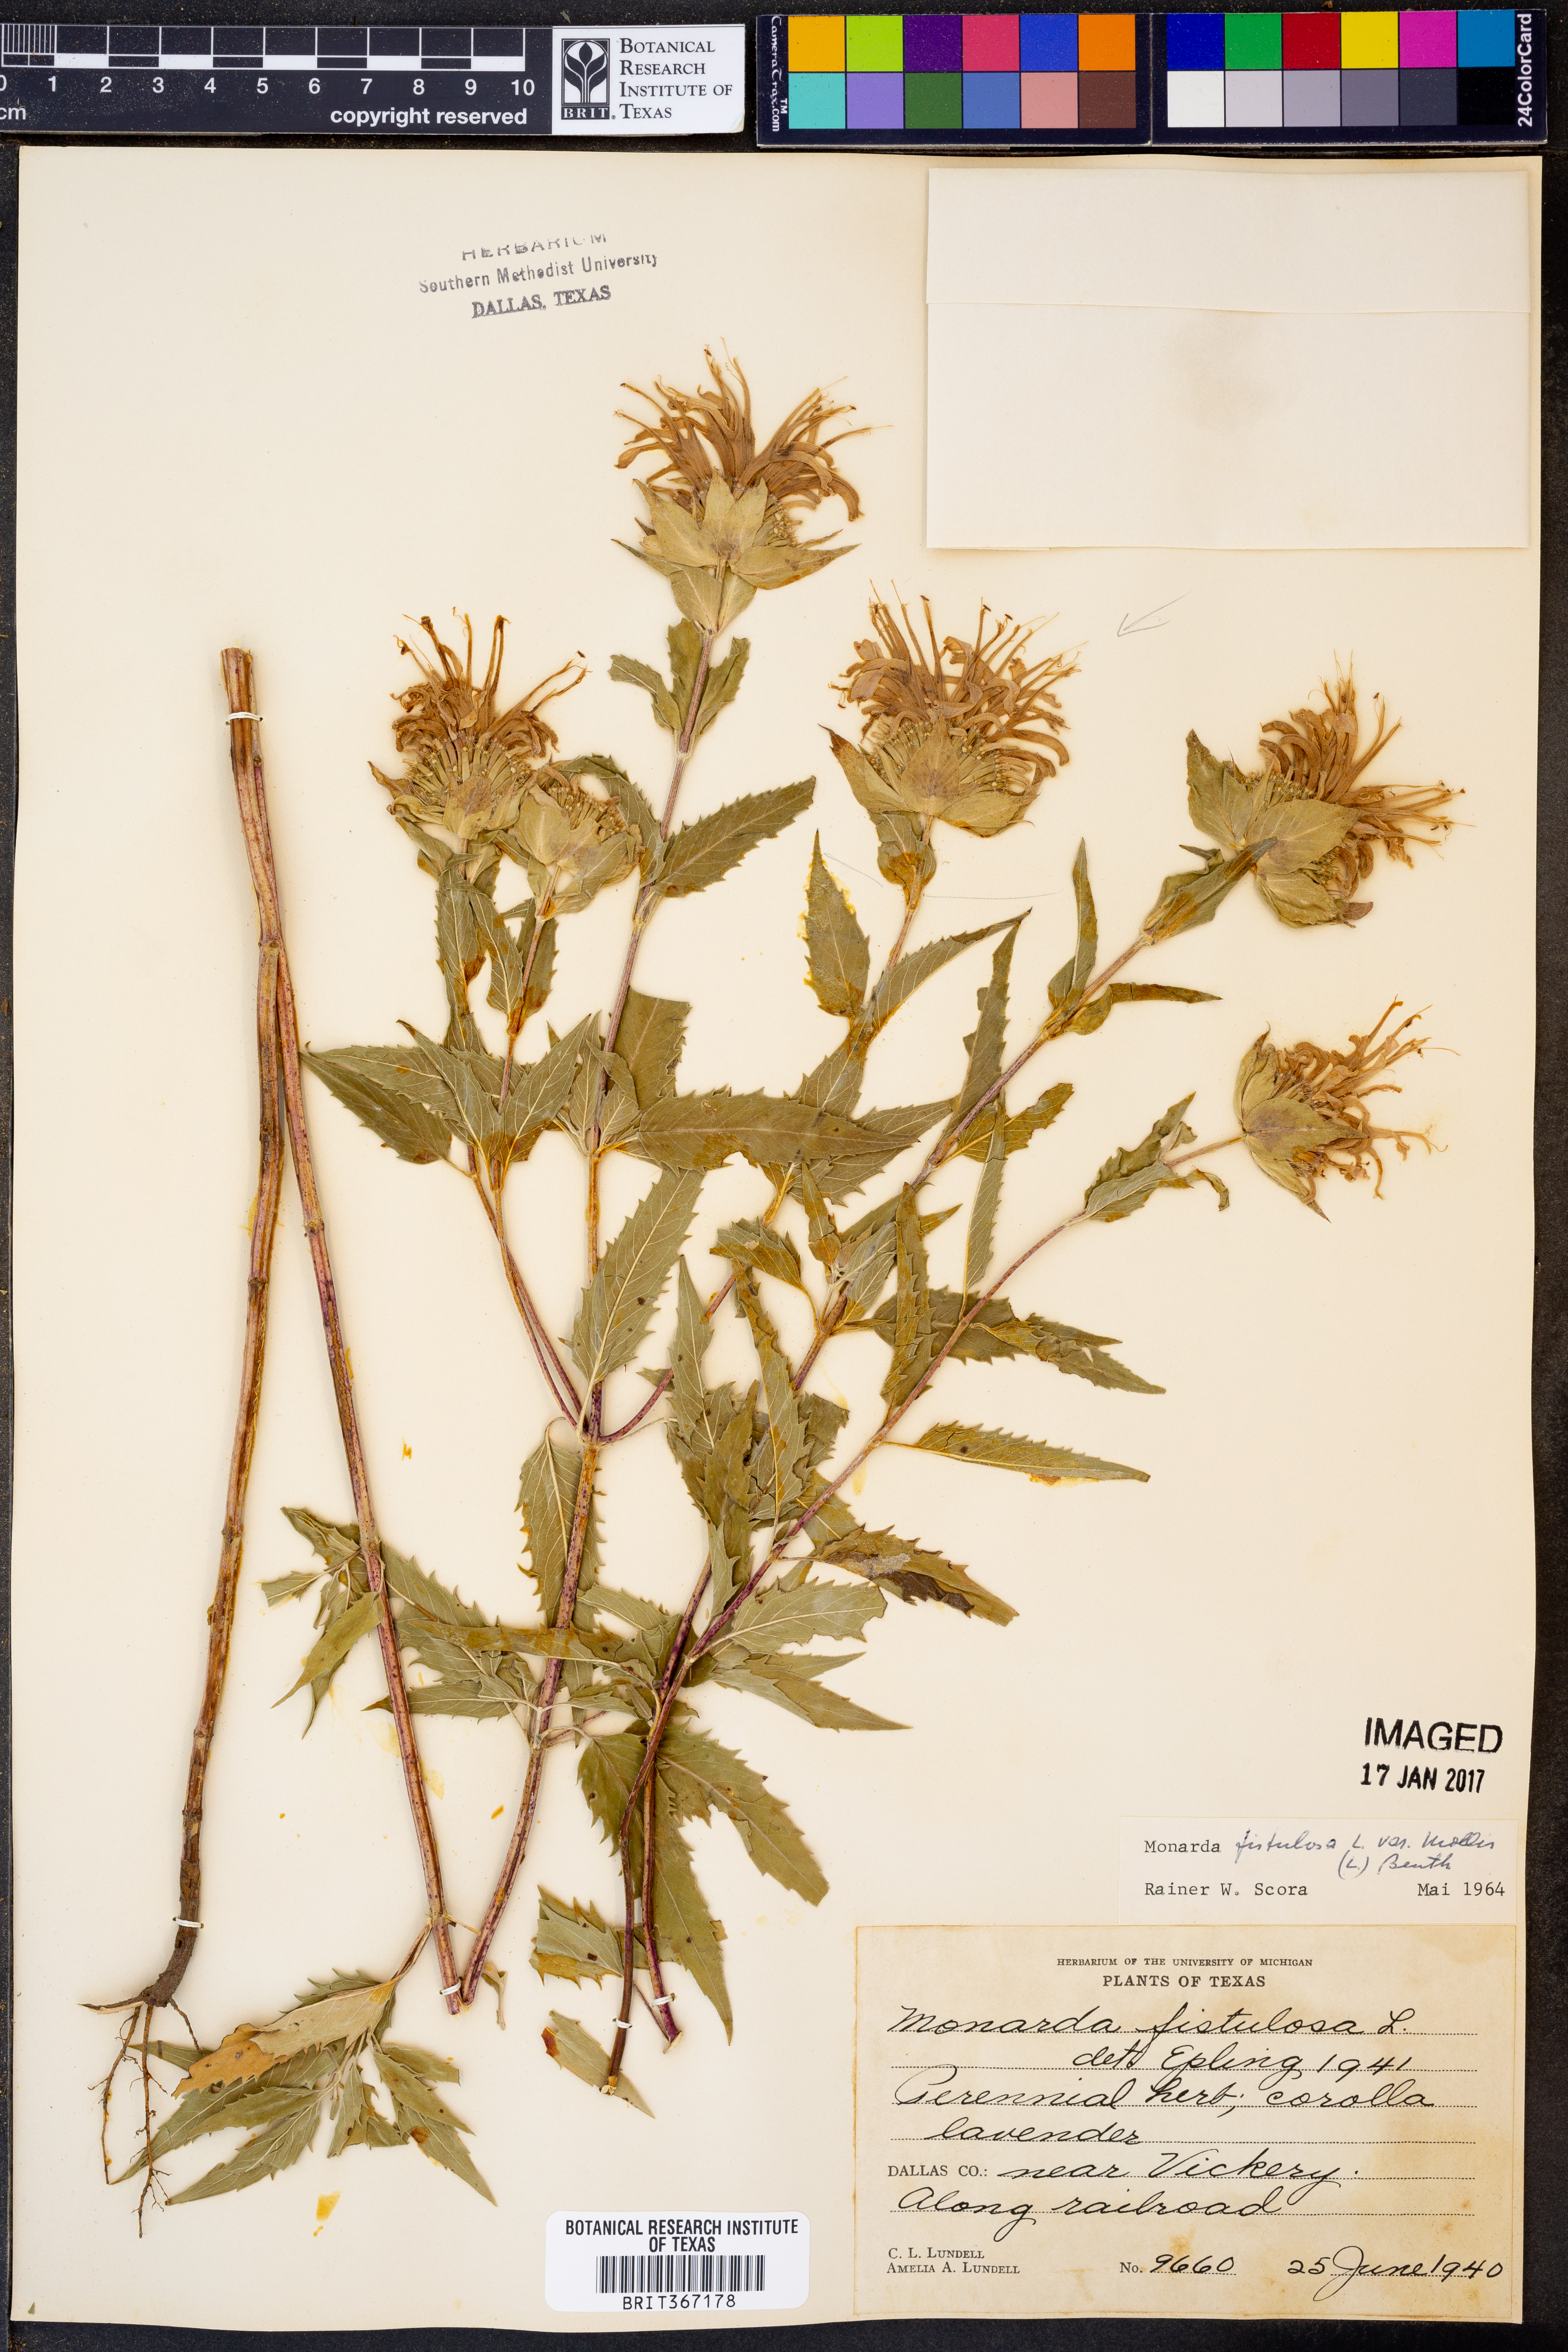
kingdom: Plantae
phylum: Tracheophyta
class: Magnoliopsida
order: Lamiales
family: Lamiaceae
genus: Monarda
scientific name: Monarda fistulosa
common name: Purple beebalm
